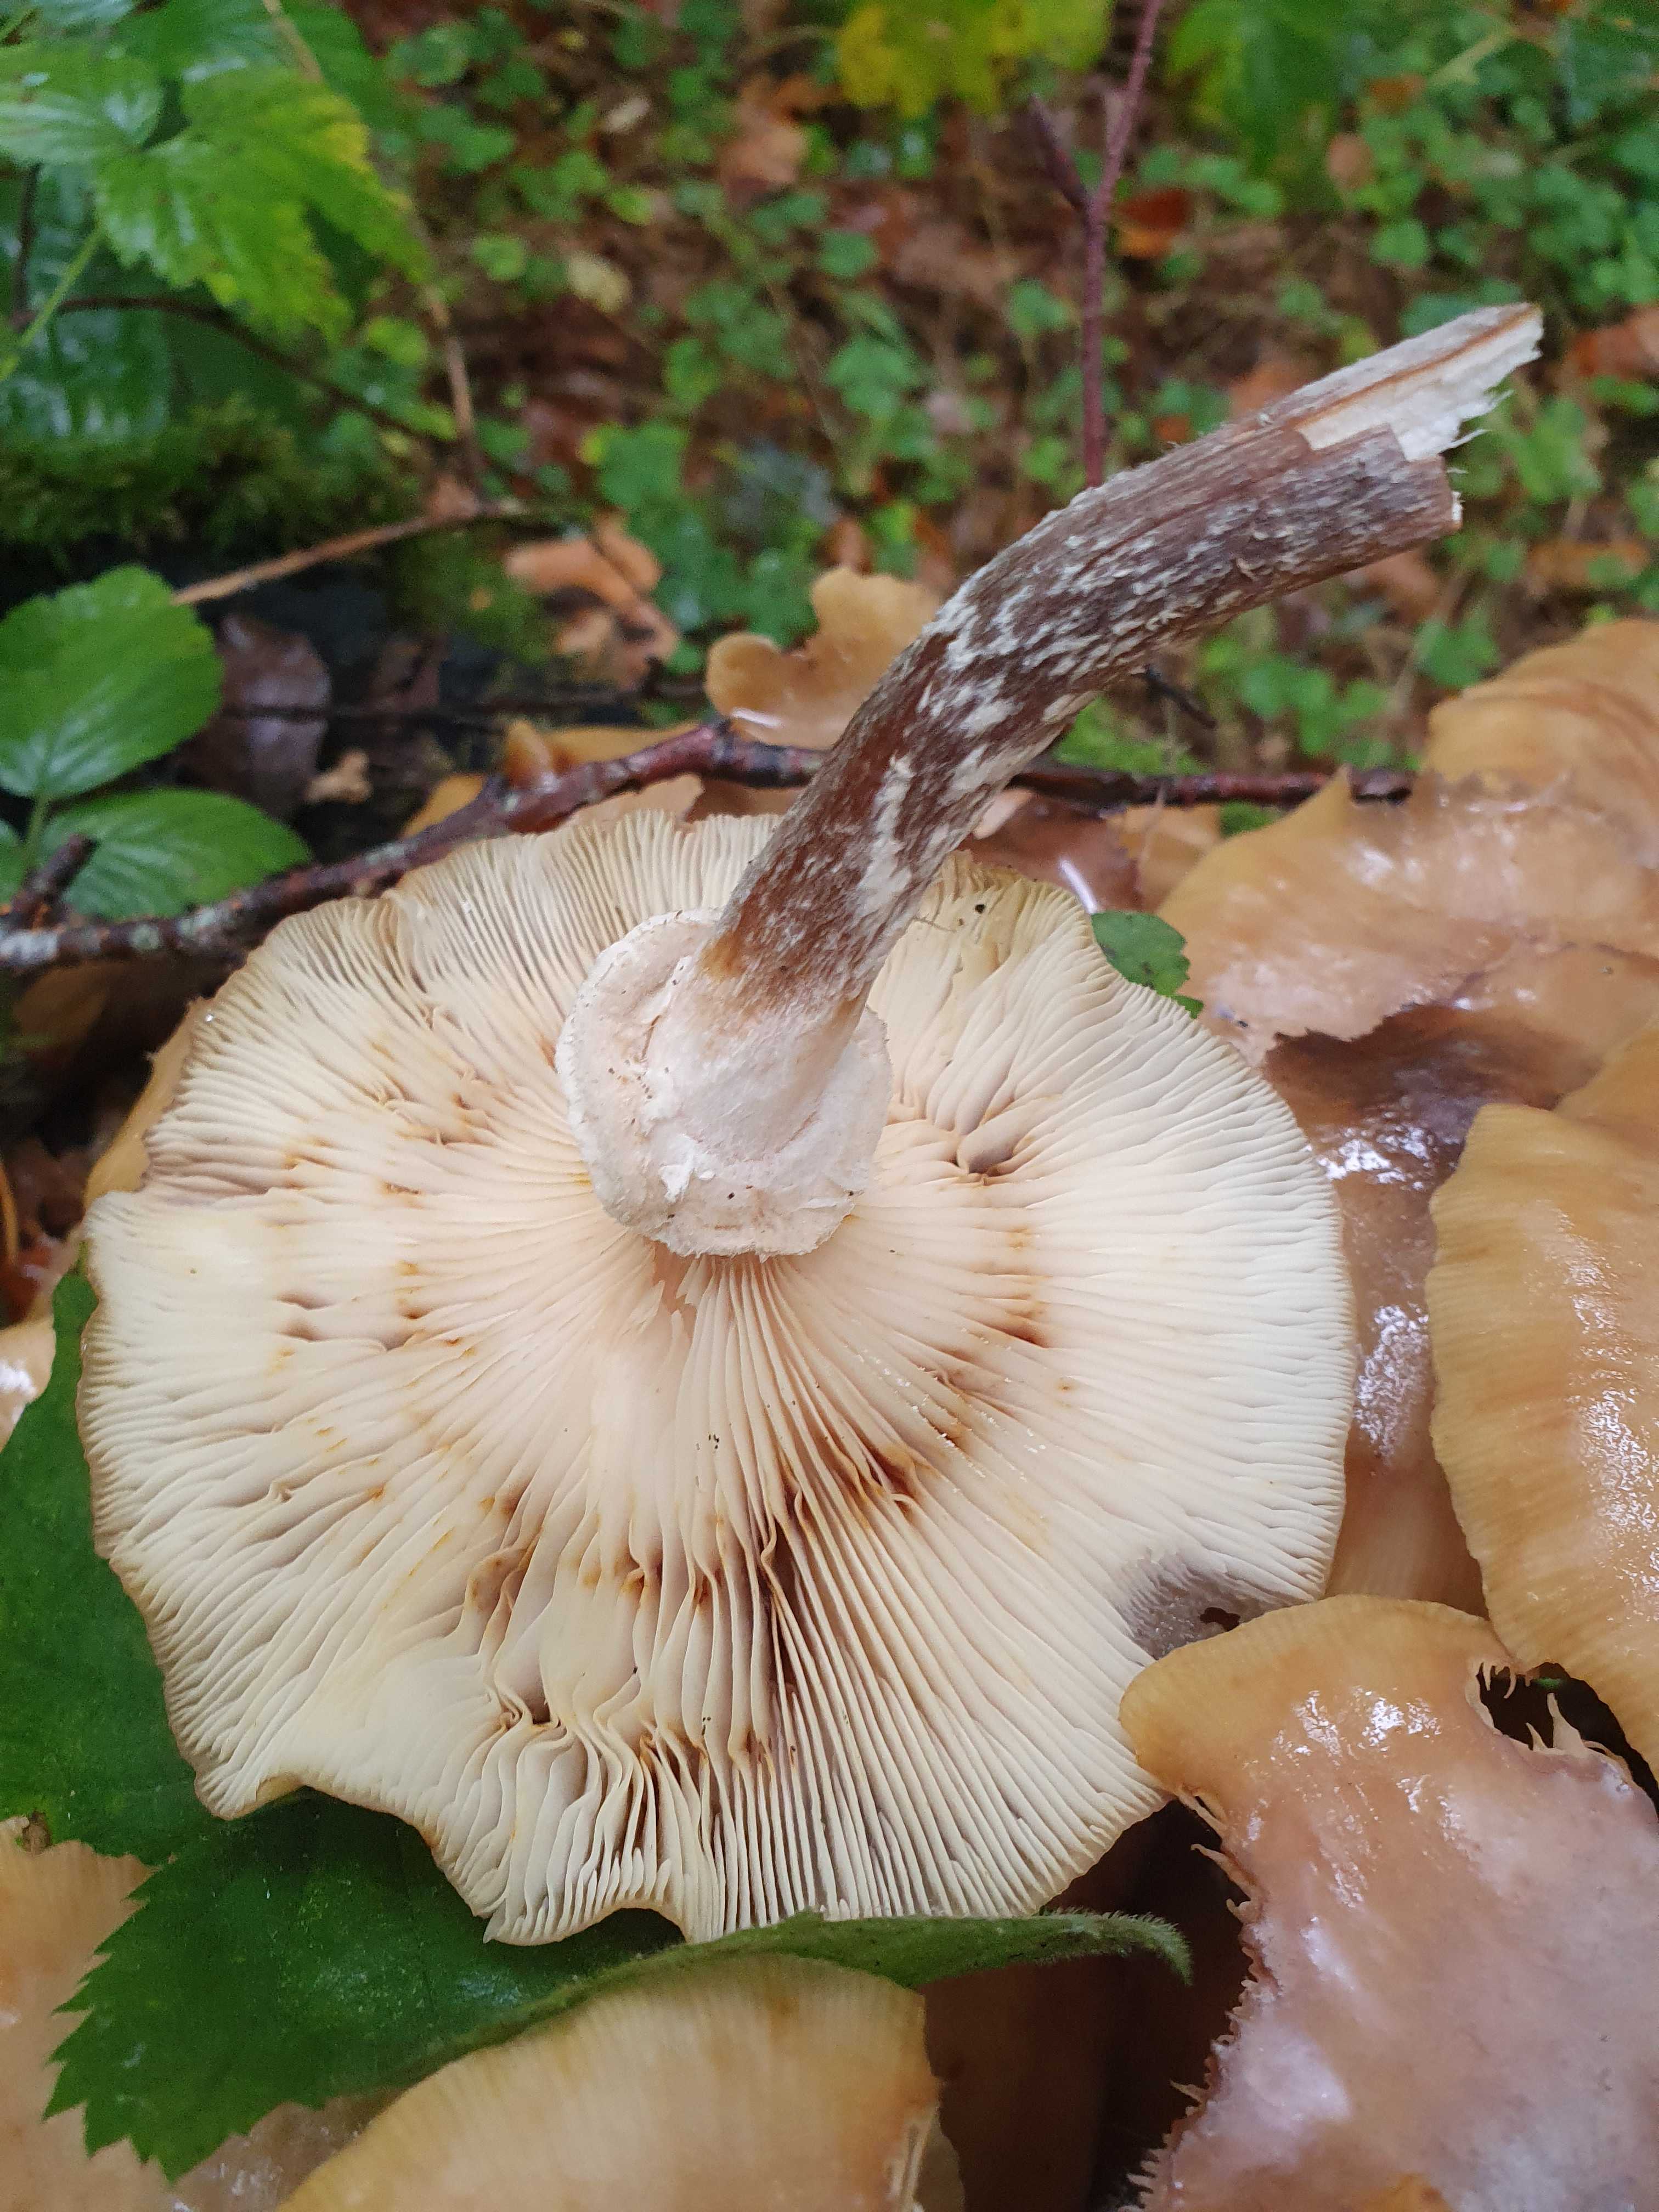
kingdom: Fungi
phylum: Basidiomycota
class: Agaricomycetes
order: Agaricales
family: Physalacriaceae
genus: Armillaria
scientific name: Armillaria mellea
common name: ægte honningsvamp
